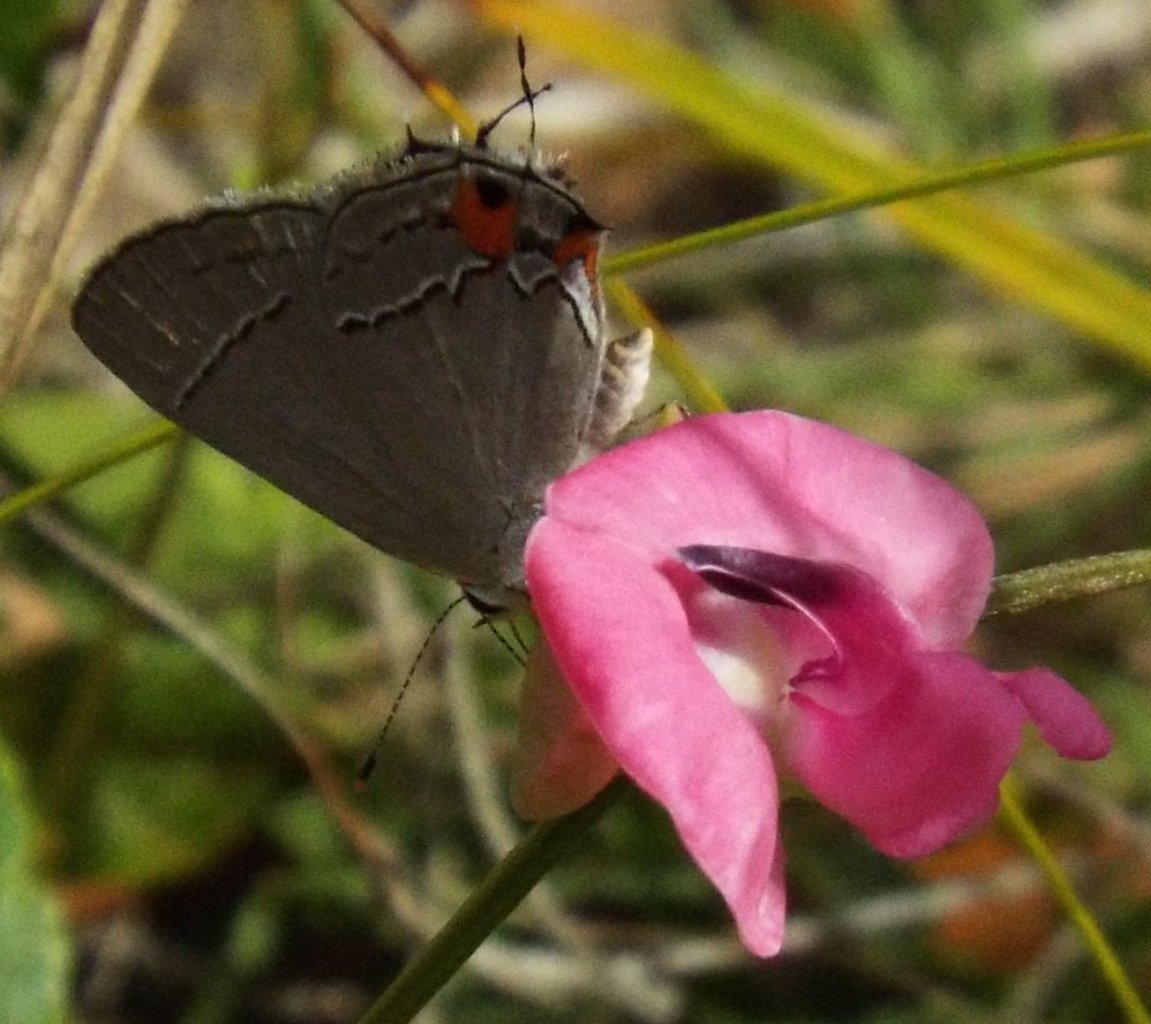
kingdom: Animalia
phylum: Arthropoda
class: Insecta
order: Lepidoptera
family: Lycaenidae
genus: Strymon
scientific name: Strymon melinus
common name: Gray Hairstreak
